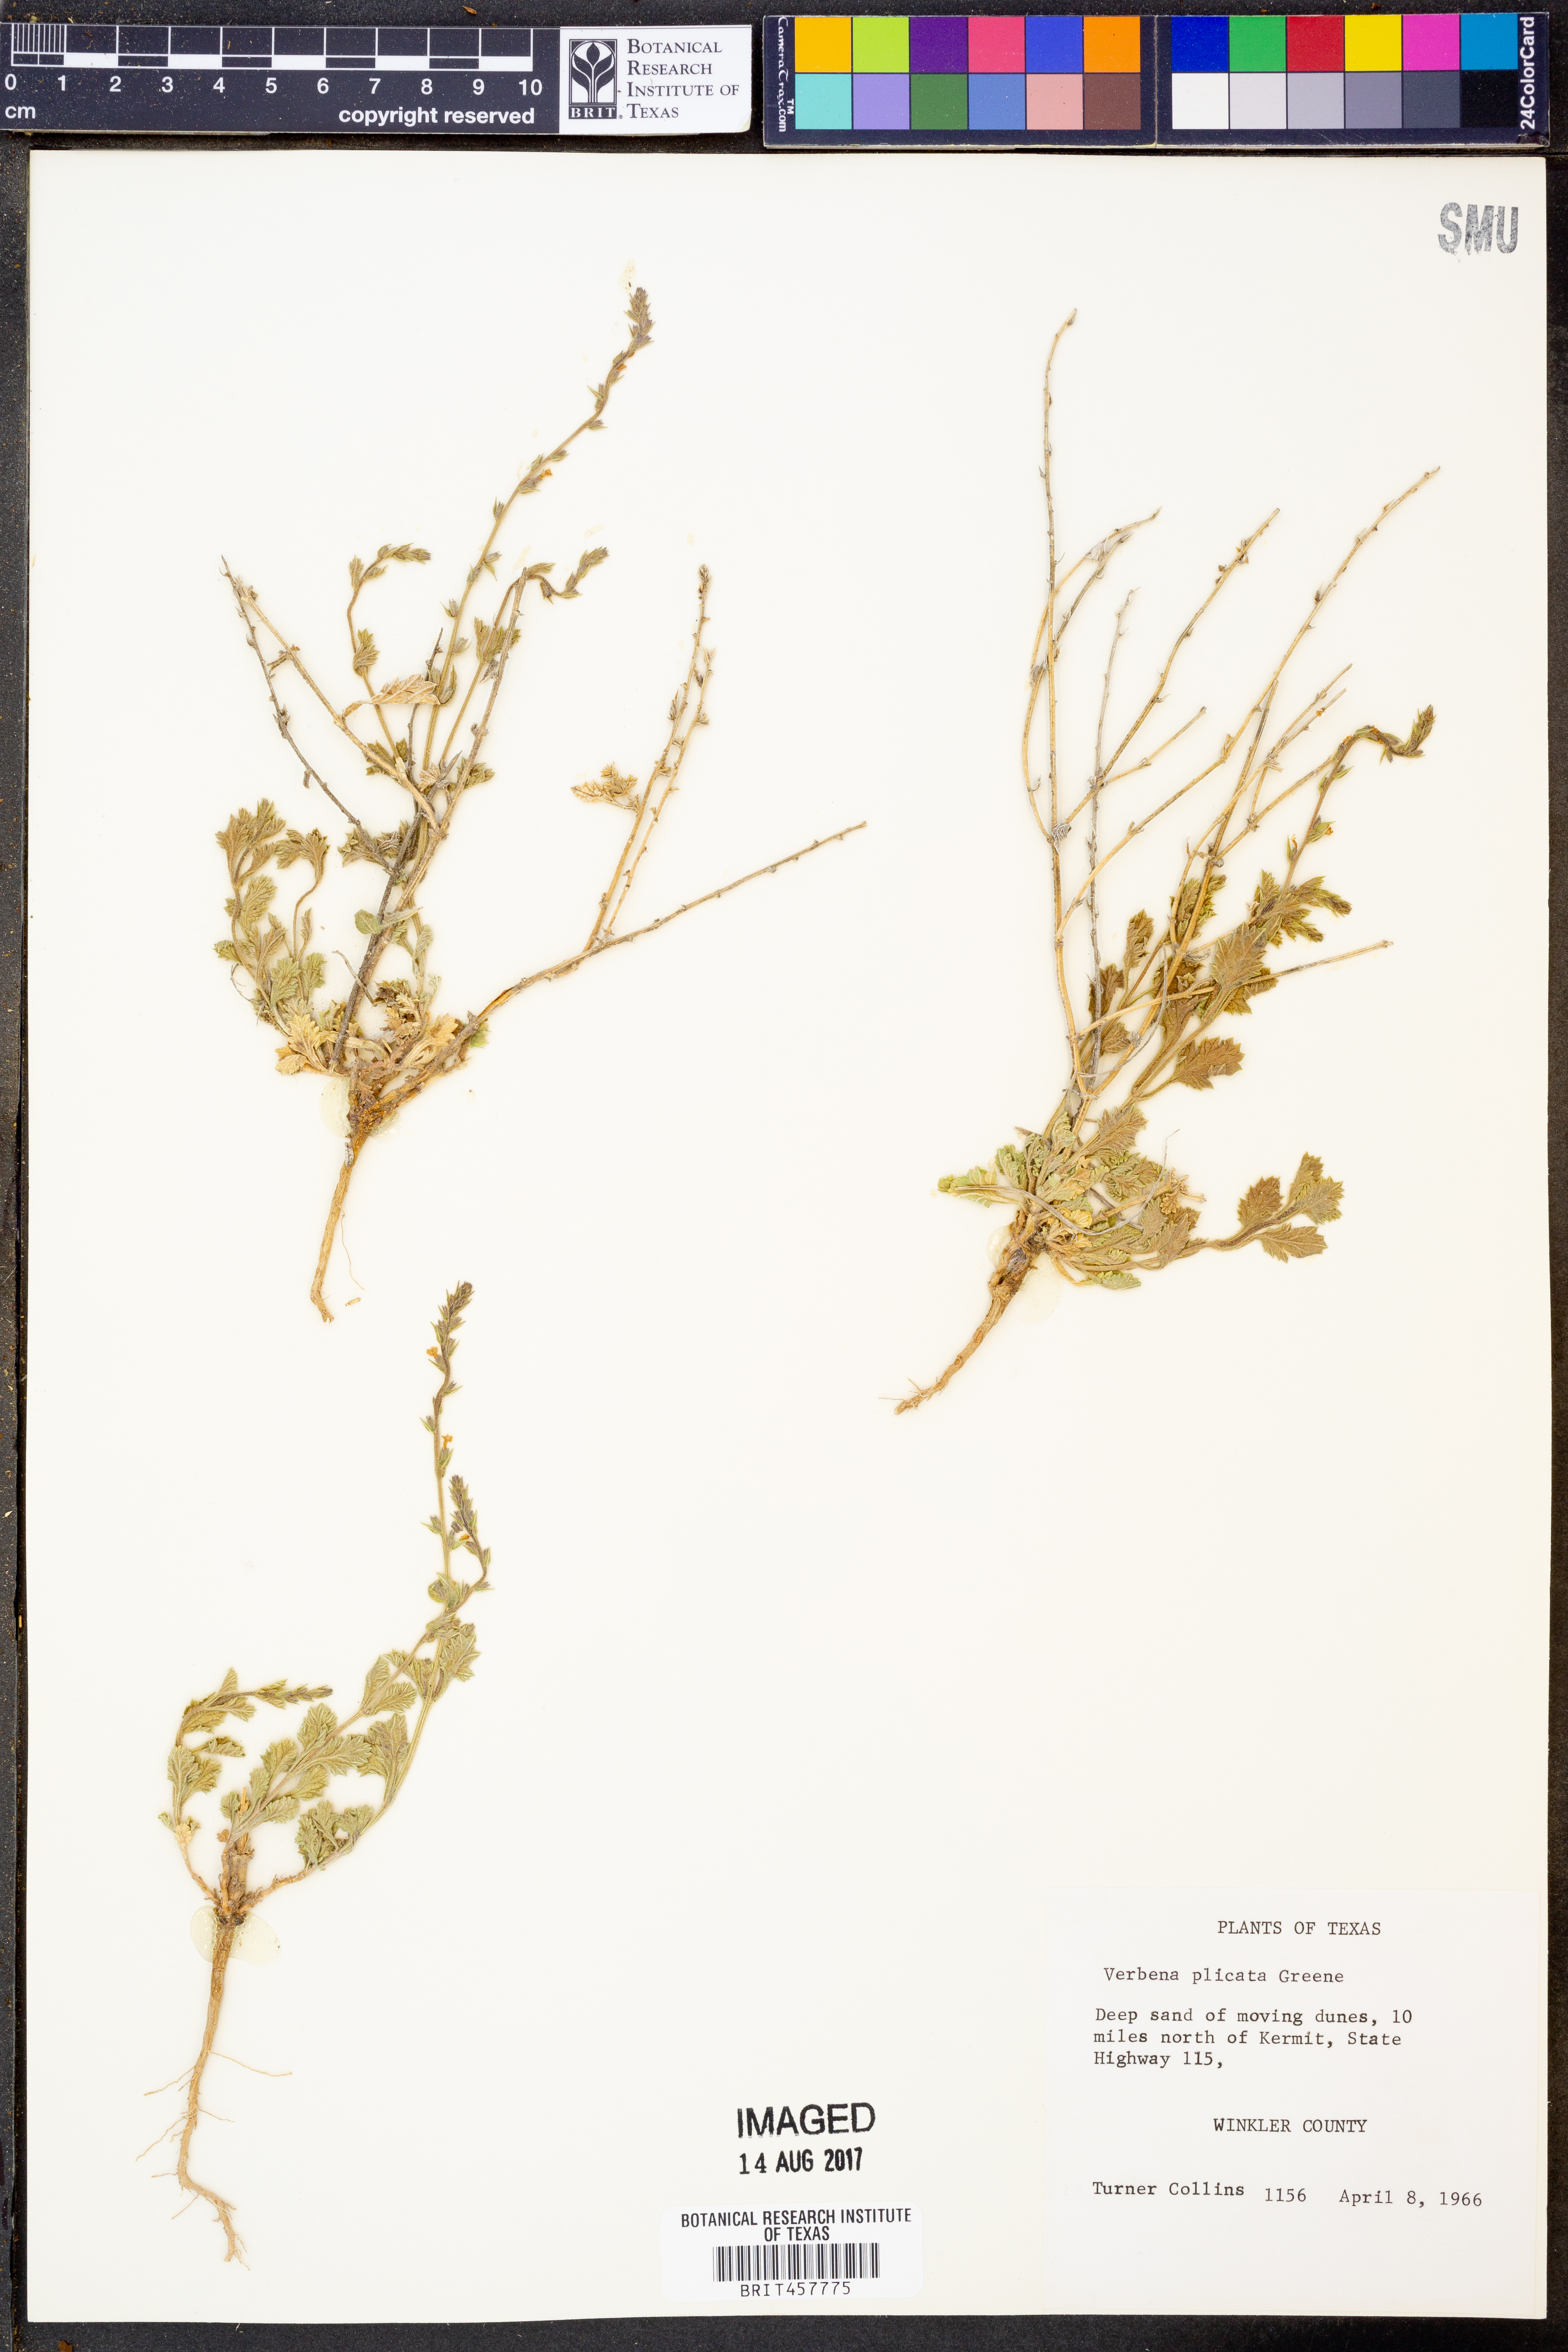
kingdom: Plantae
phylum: Tracheophyta
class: Magnoliopsida
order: Lamiales
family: Verbenaceae
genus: Verbena
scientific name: Verbena plicata
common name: Fan-leaf vervain
